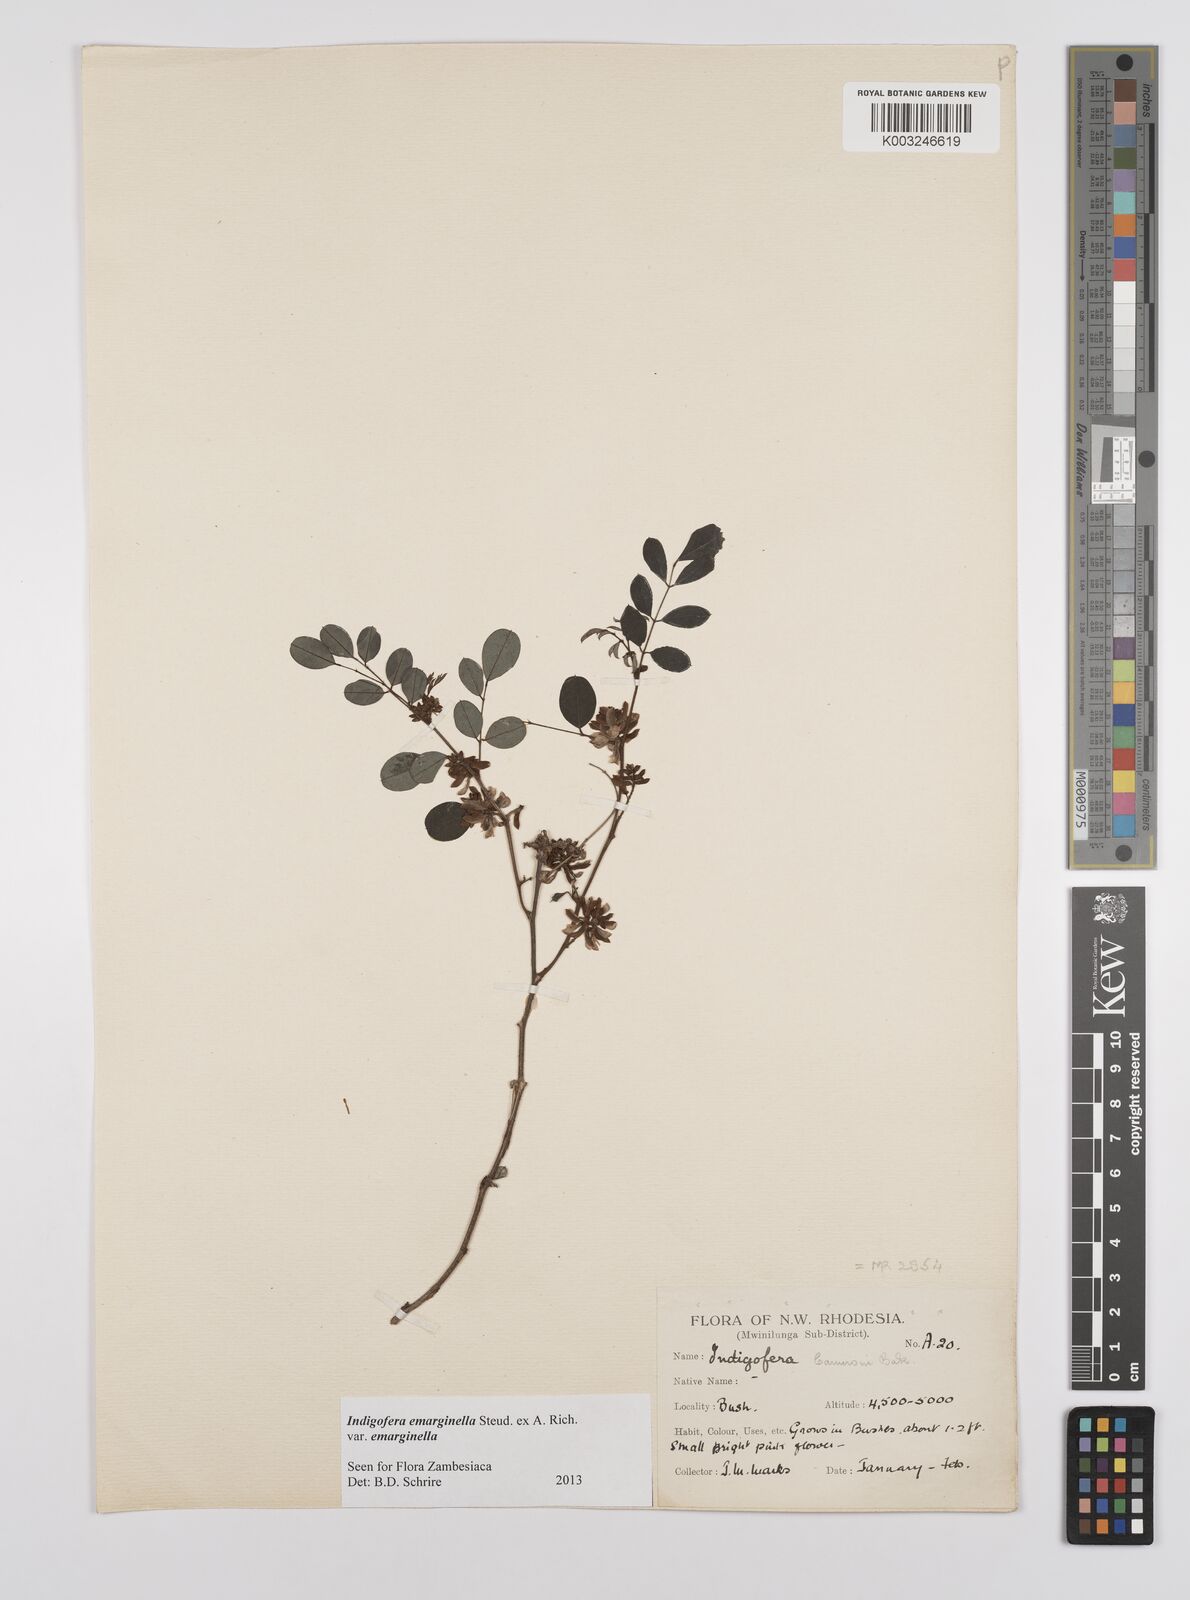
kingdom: Plantae
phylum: Tracheophyta
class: Magnoliopsida
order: Fabales
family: Fabaceae
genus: Indigofera
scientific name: Indigofera emarginella
